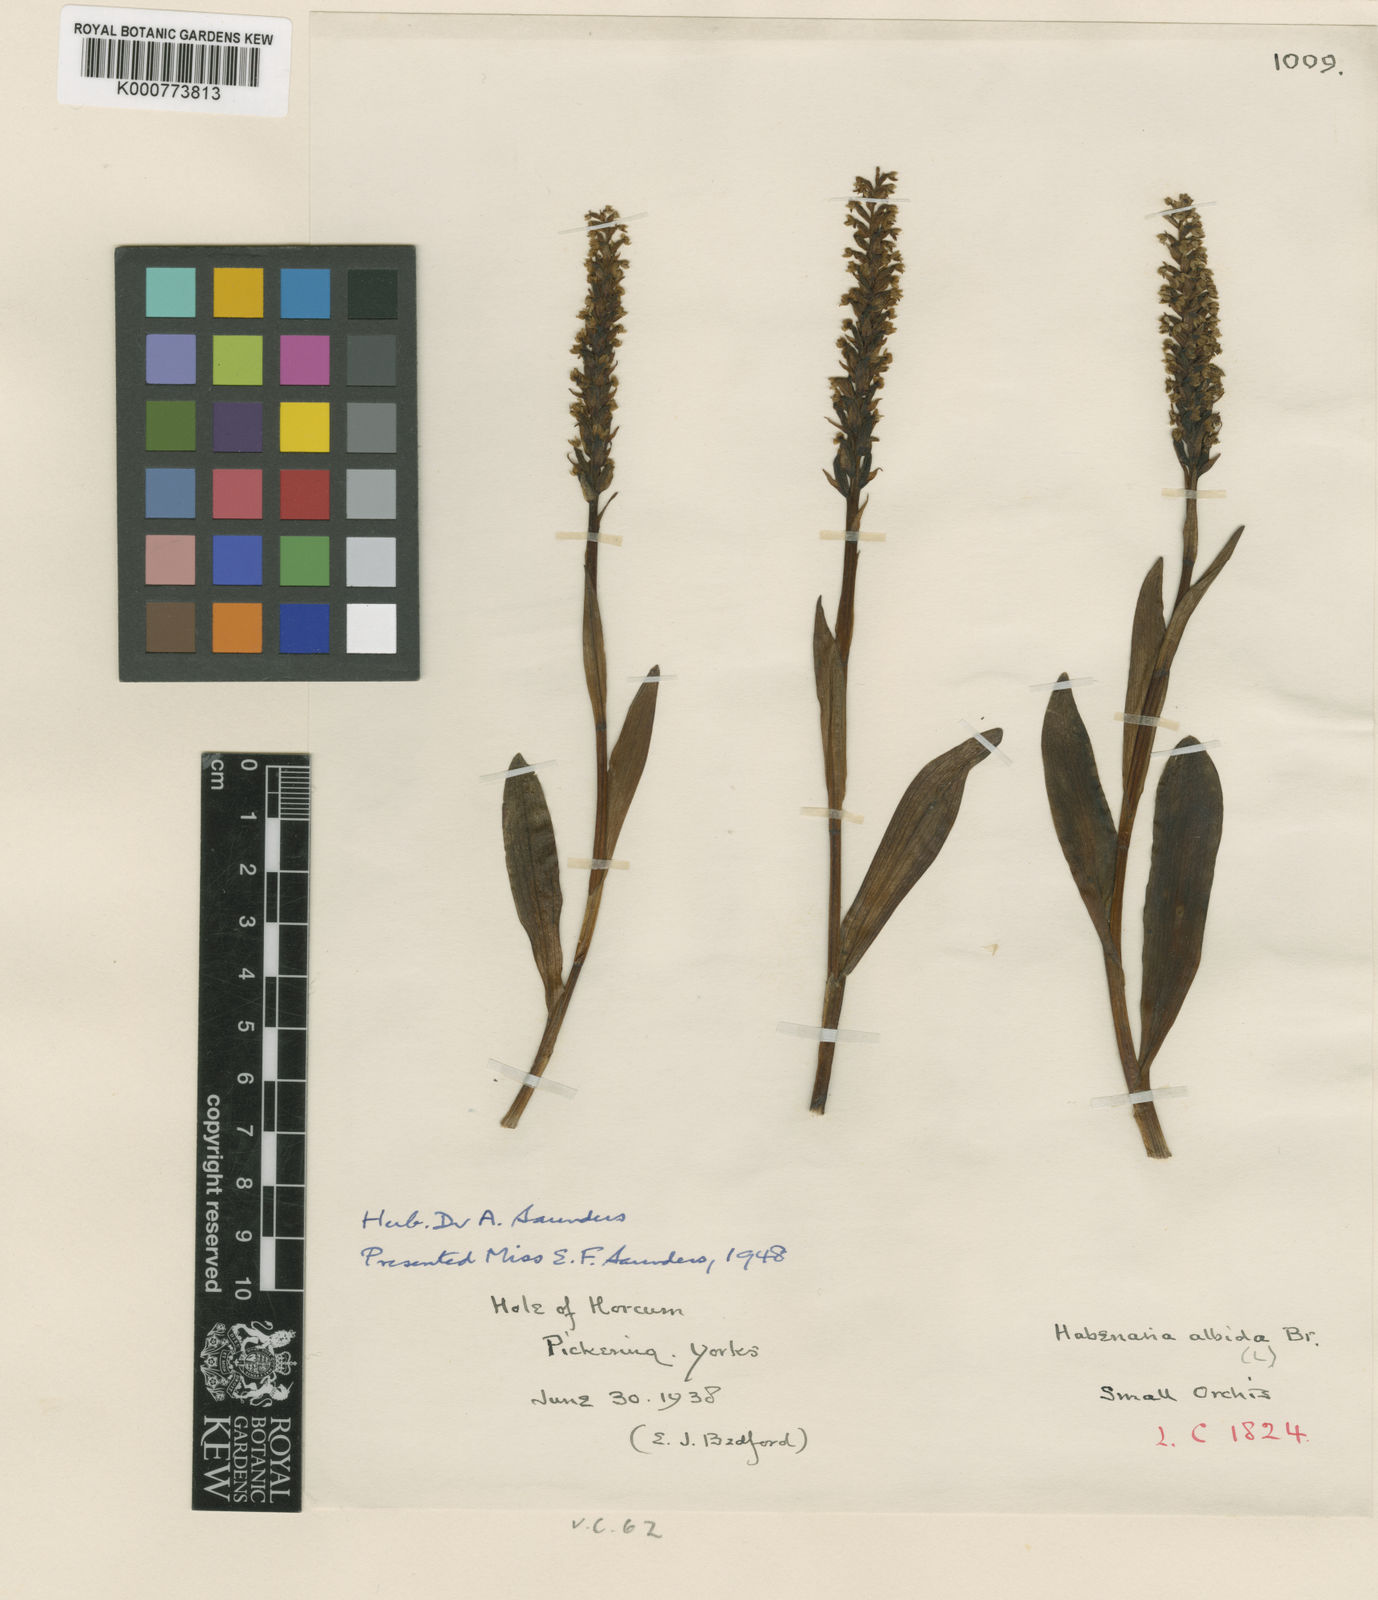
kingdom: Plantae
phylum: Tracheophyta
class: Liliopsida
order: Asparagales
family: Orchidaceae
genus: Pseudorchis
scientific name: Pseudorchis
